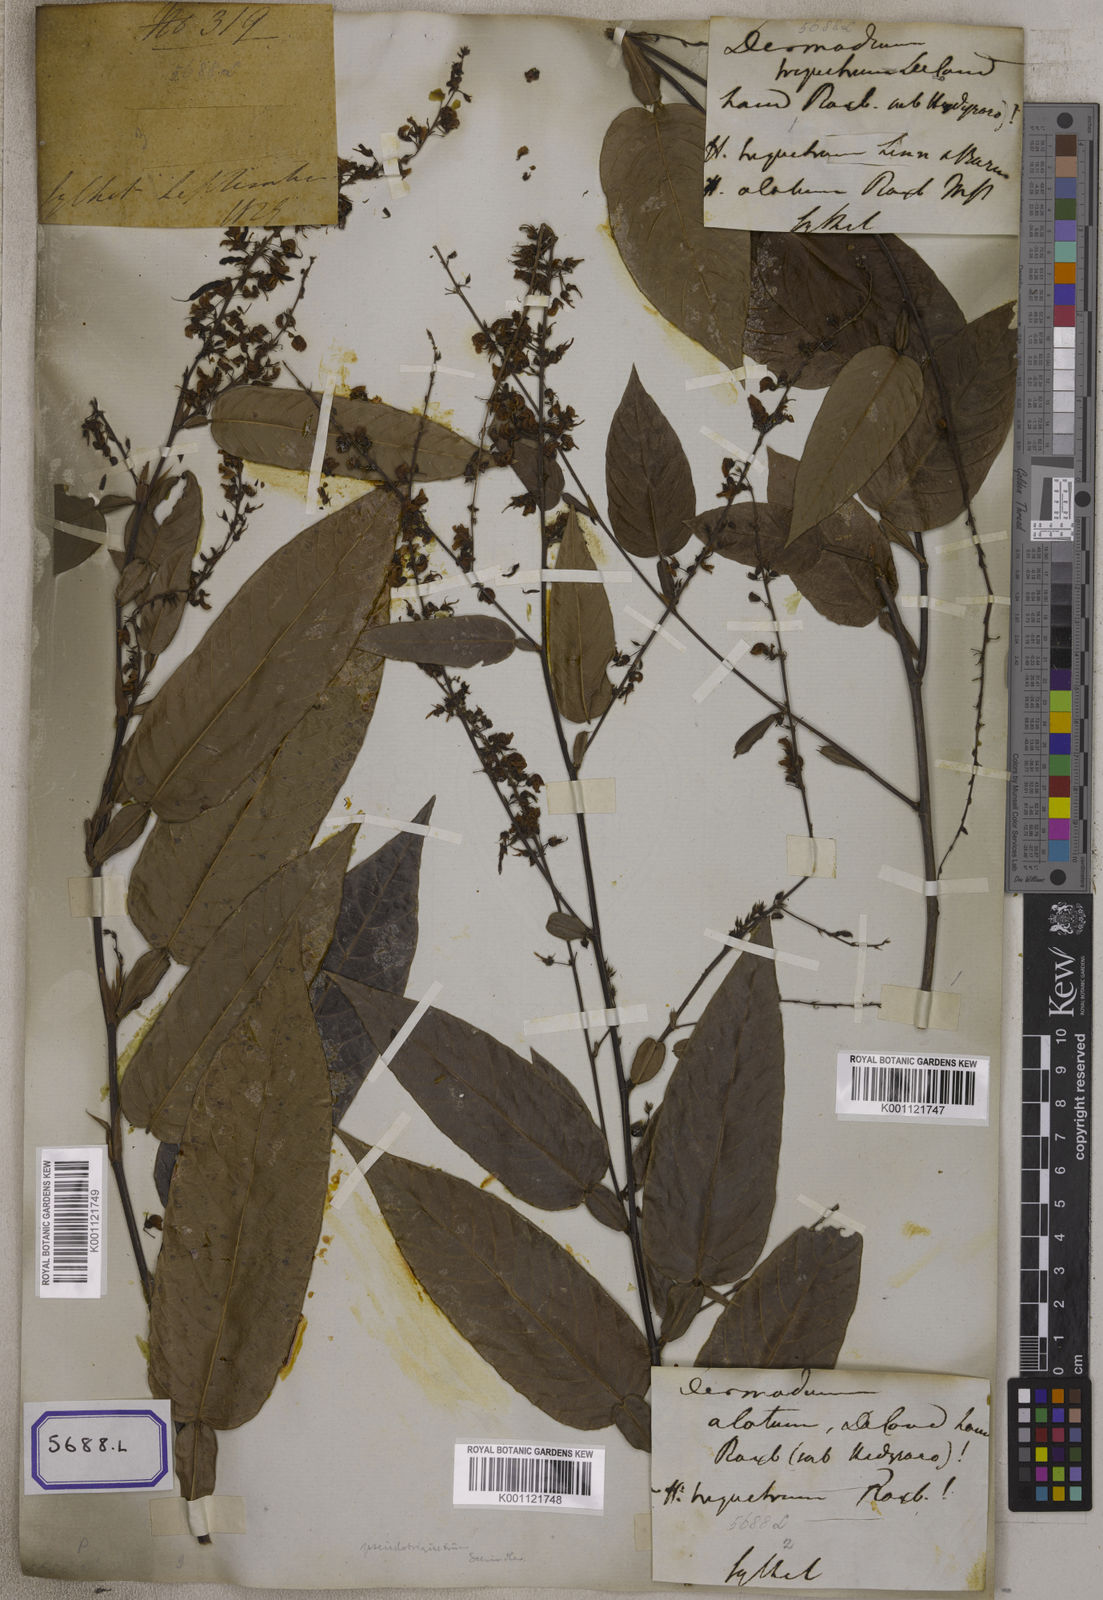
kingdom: Plantae
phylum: Tracheophyta
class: Magnoliopsida
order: Fabales
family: Fabaceae
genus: Tadehagi
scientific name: Tadehagi triquetrum
